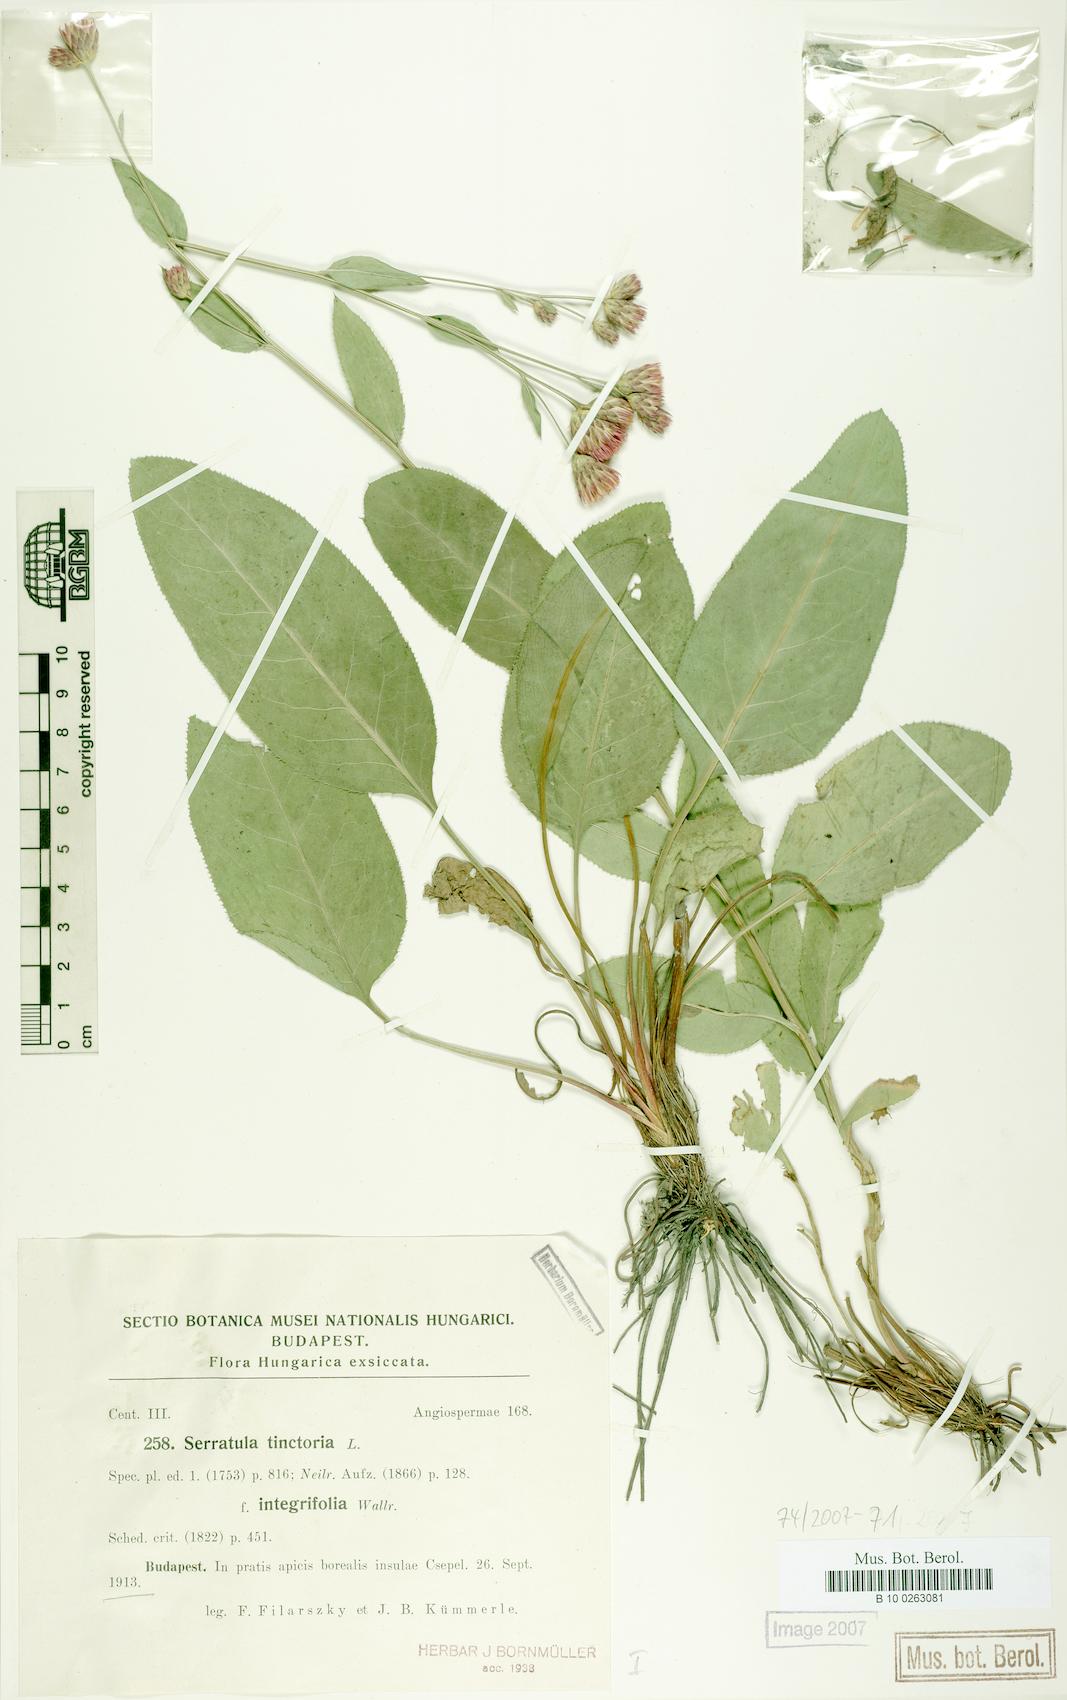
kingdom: Plantae
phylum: Tracheophyta
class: Magnoliopsida
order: Asterales
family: Asteraceae
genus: Serratula
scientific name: Serratula tinctoria
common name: Saw-wort
